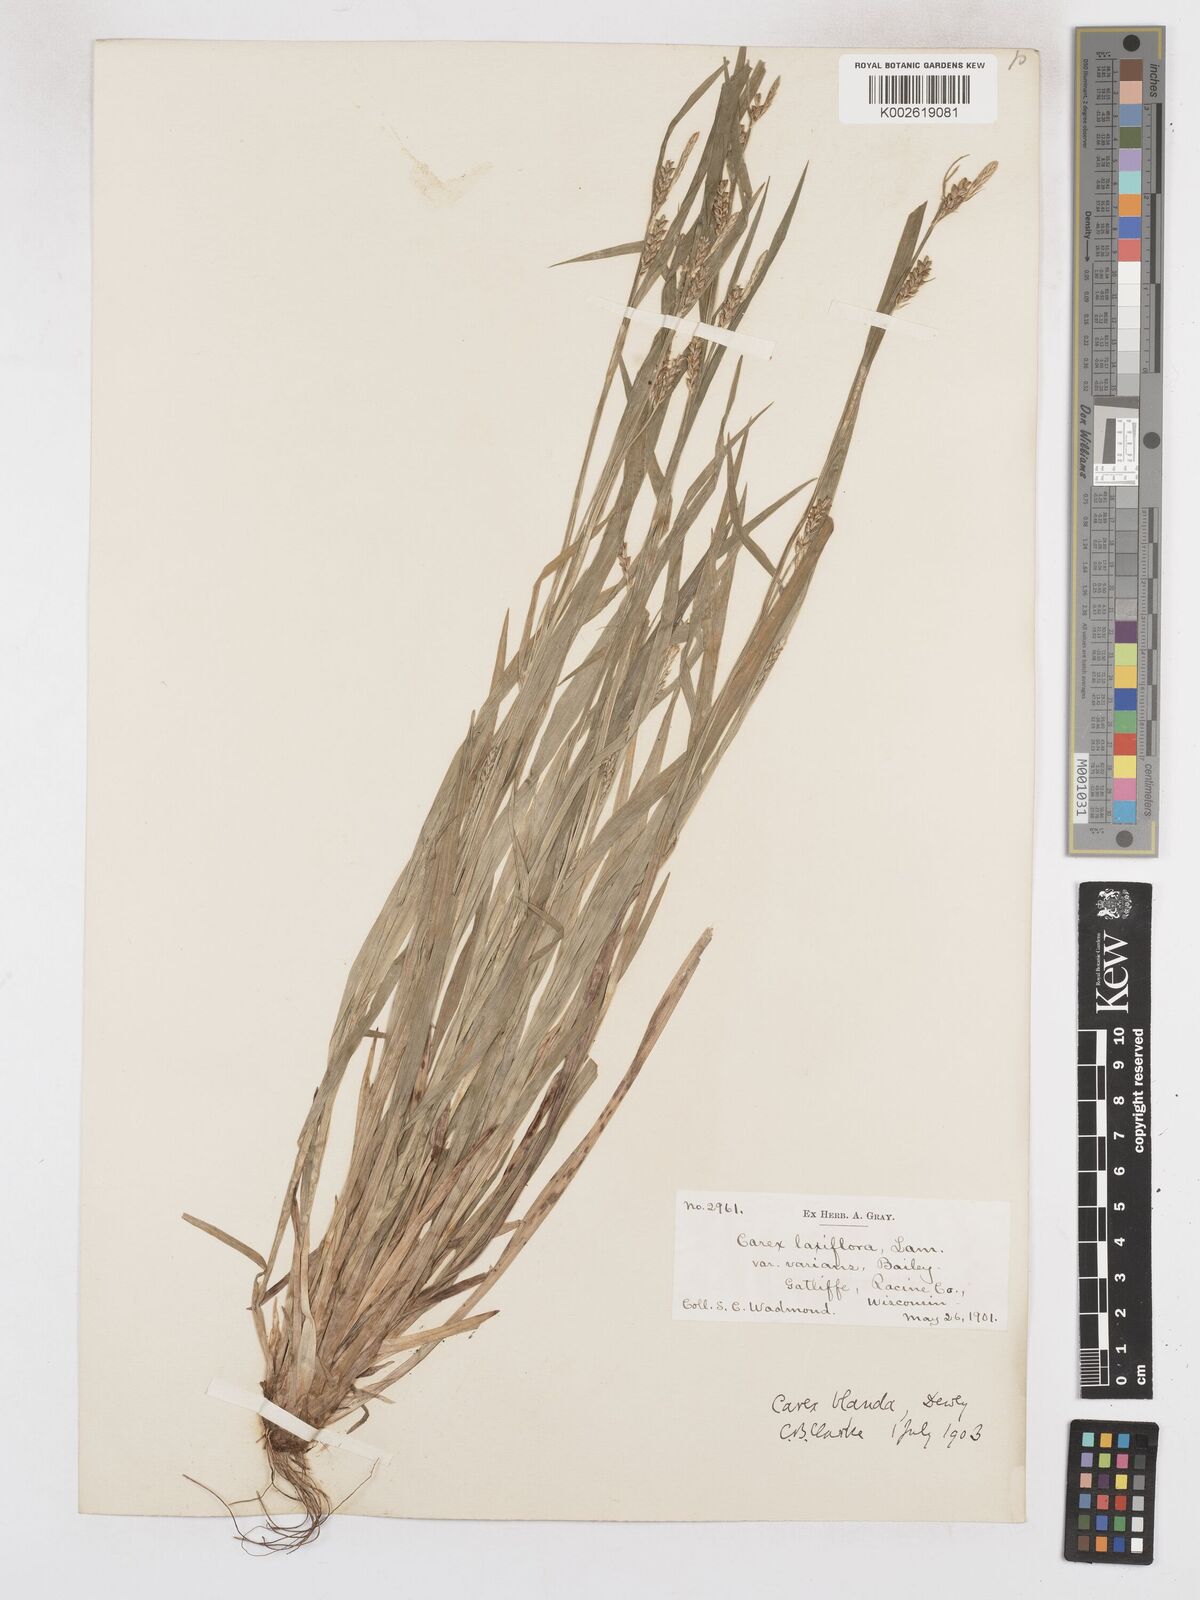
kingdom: Plantae
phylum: Tracheophyta
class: Liliopsida
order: Poales
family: Cyperaceae
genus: Carex
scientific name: Carex blanda
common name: Bland sedge
